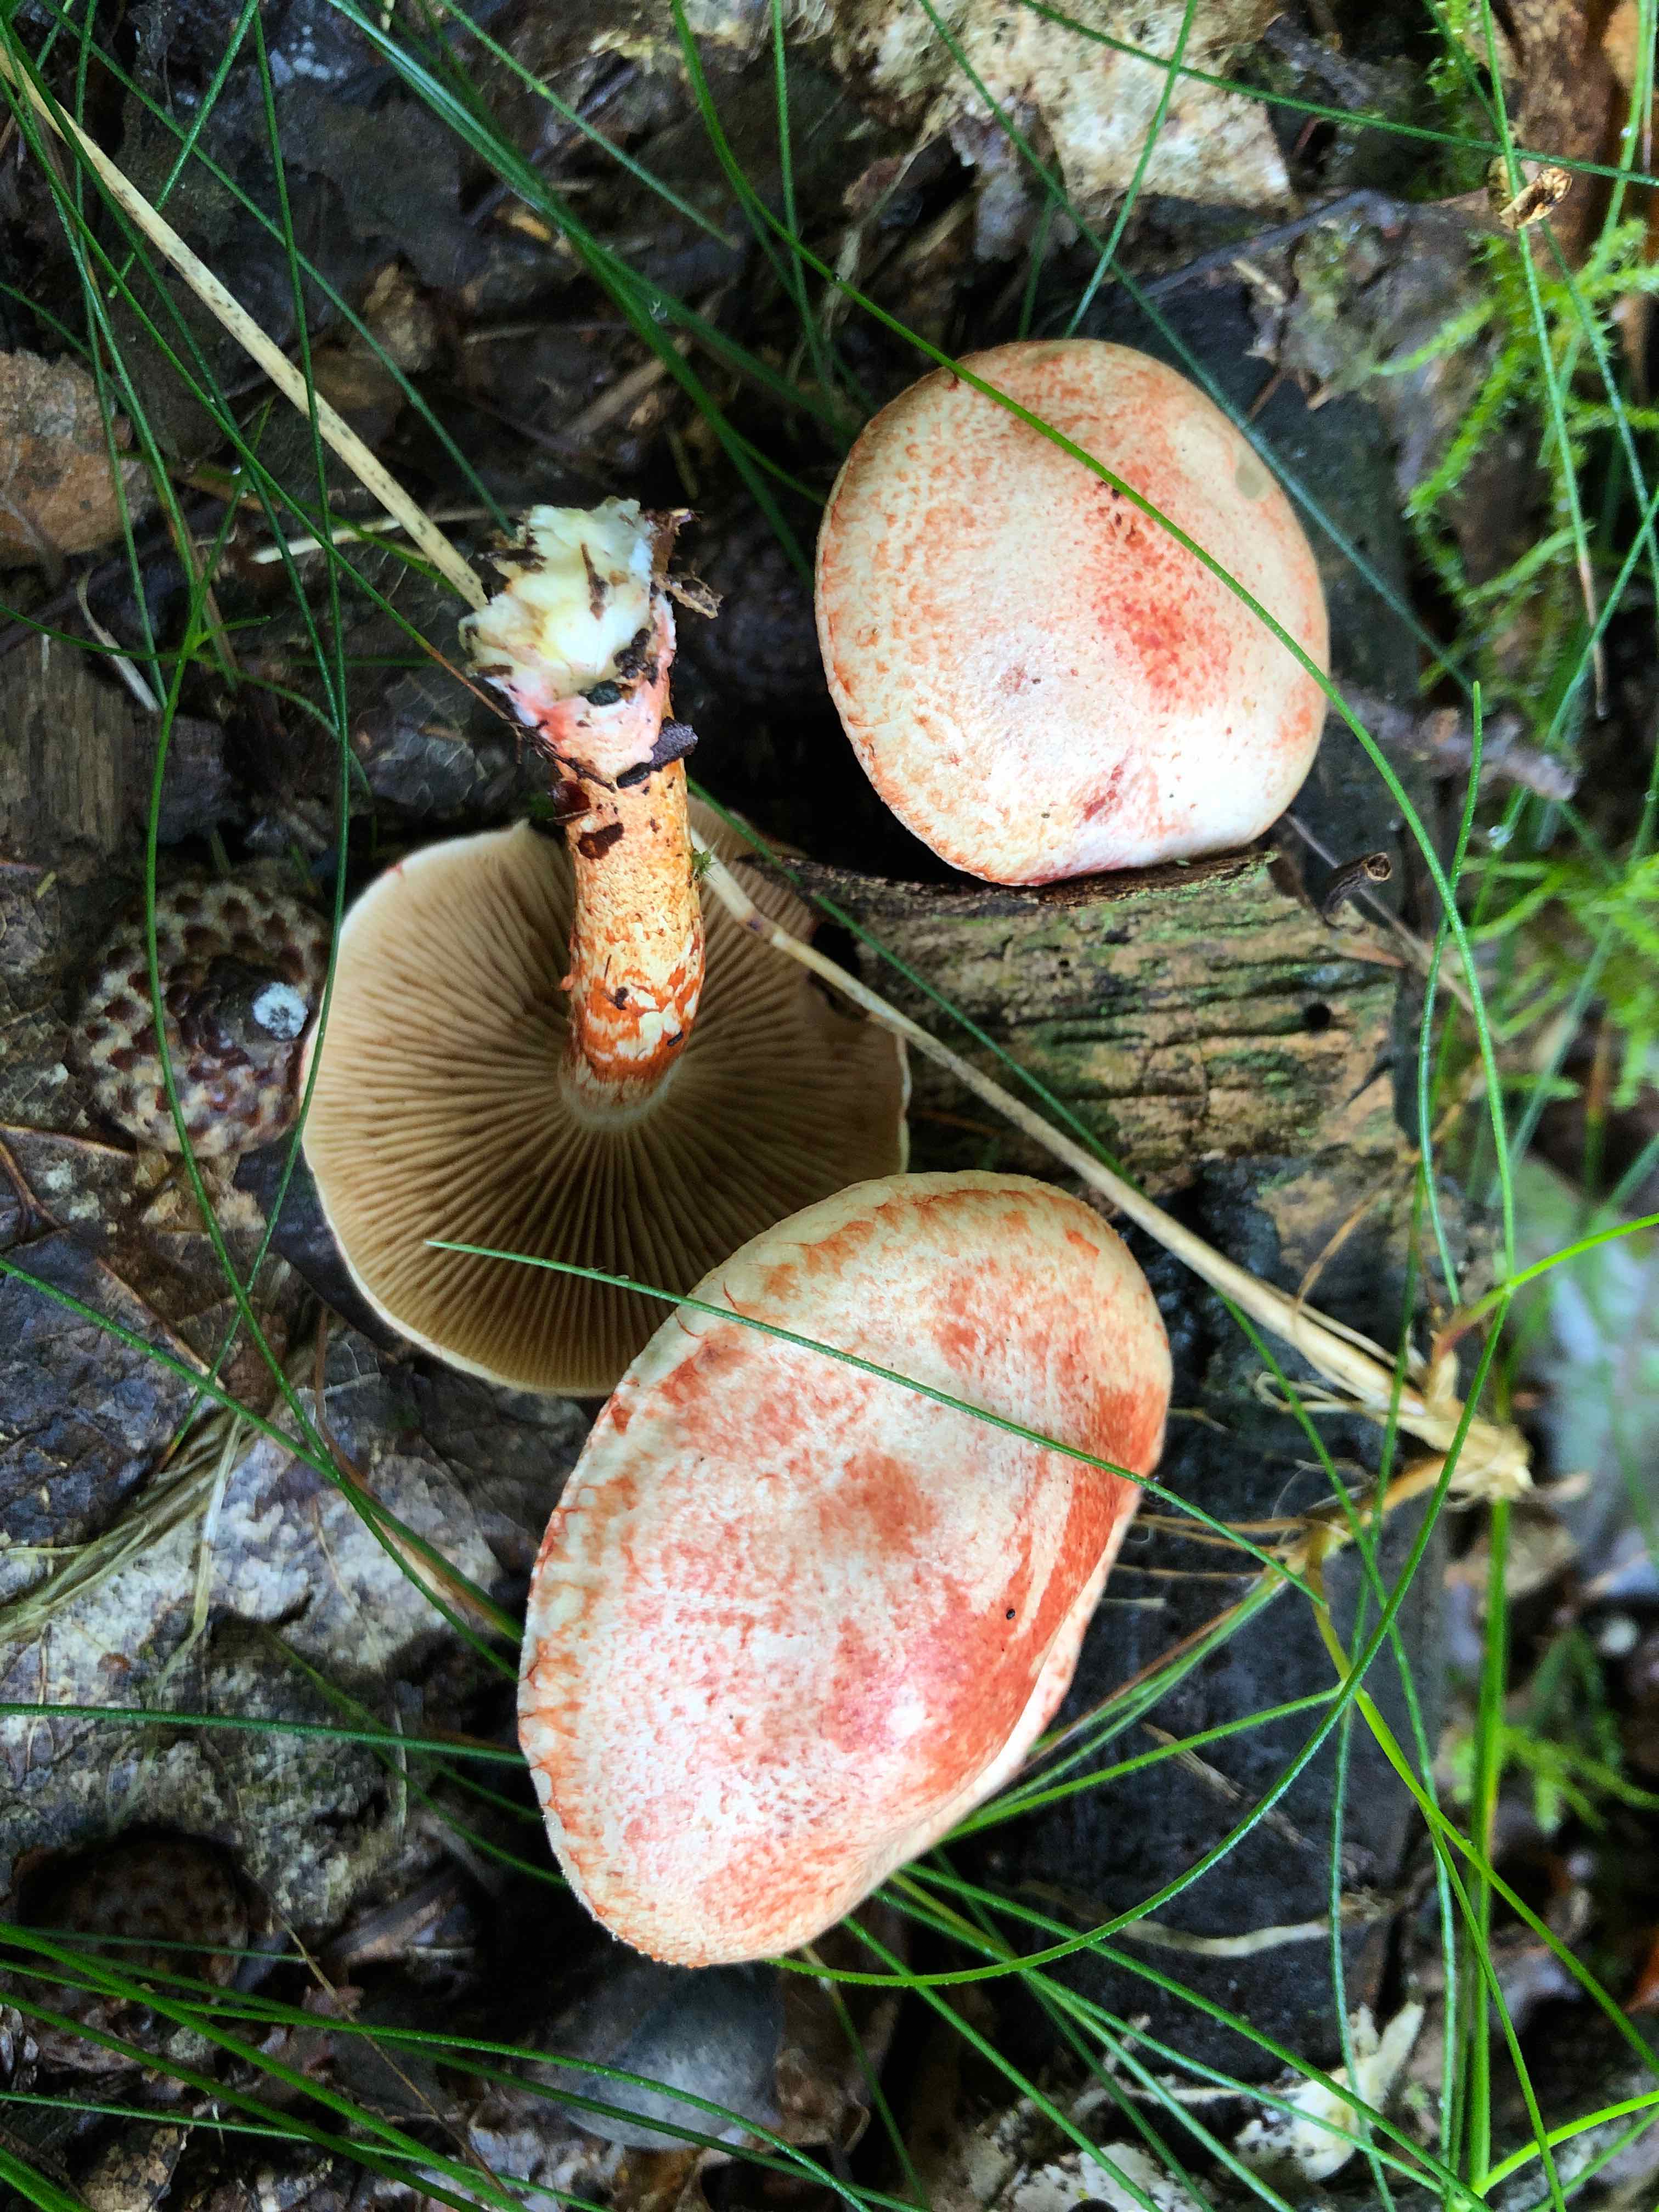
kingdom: Fungi
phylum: Basidiomycota
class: Agaricomycetes
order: Agaricales
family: Cortinariaceae
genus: Cortinarius
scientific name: Cortinarius bolaris
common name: cinnoberskællet slørhat
